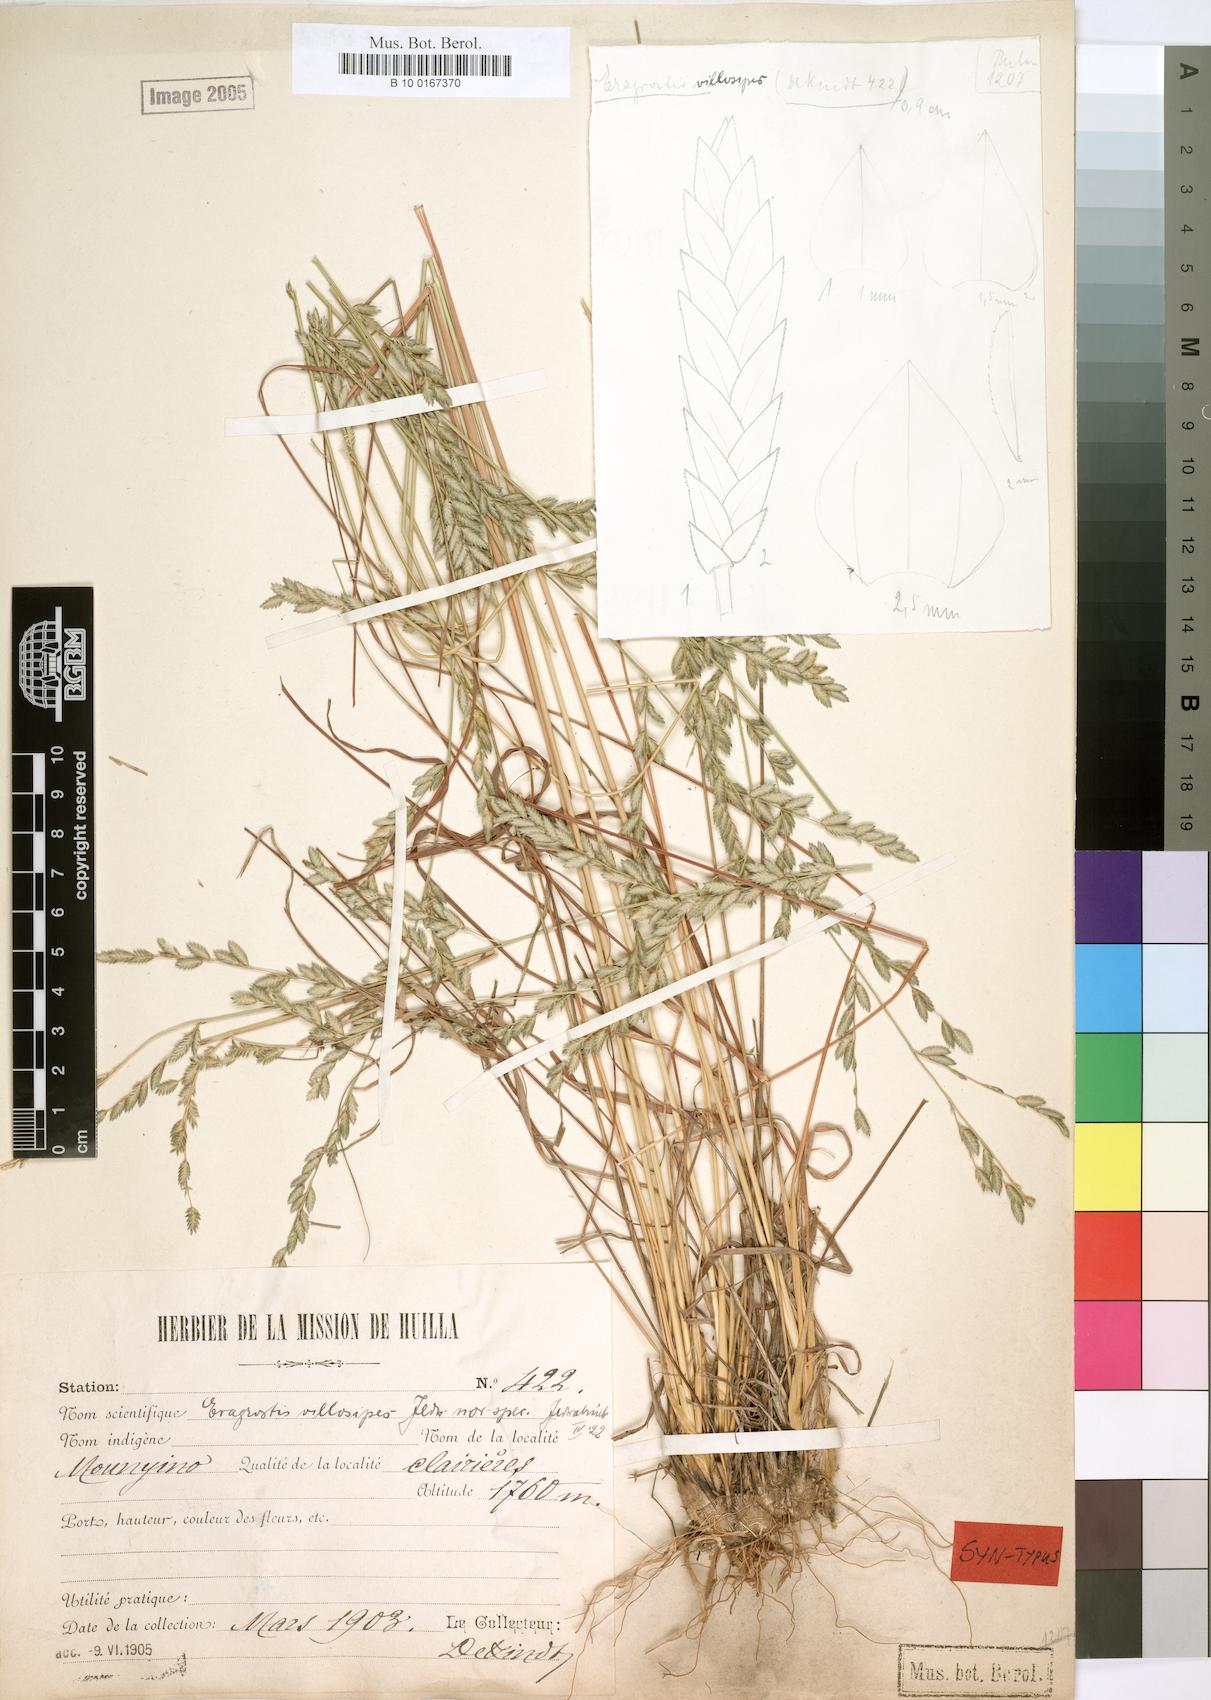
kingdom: Plantae
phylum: Tracheophyta
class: Liliopsida
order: Poales
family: Poaceae
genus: Eragrostis
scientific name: Eragrostis sclerantha
